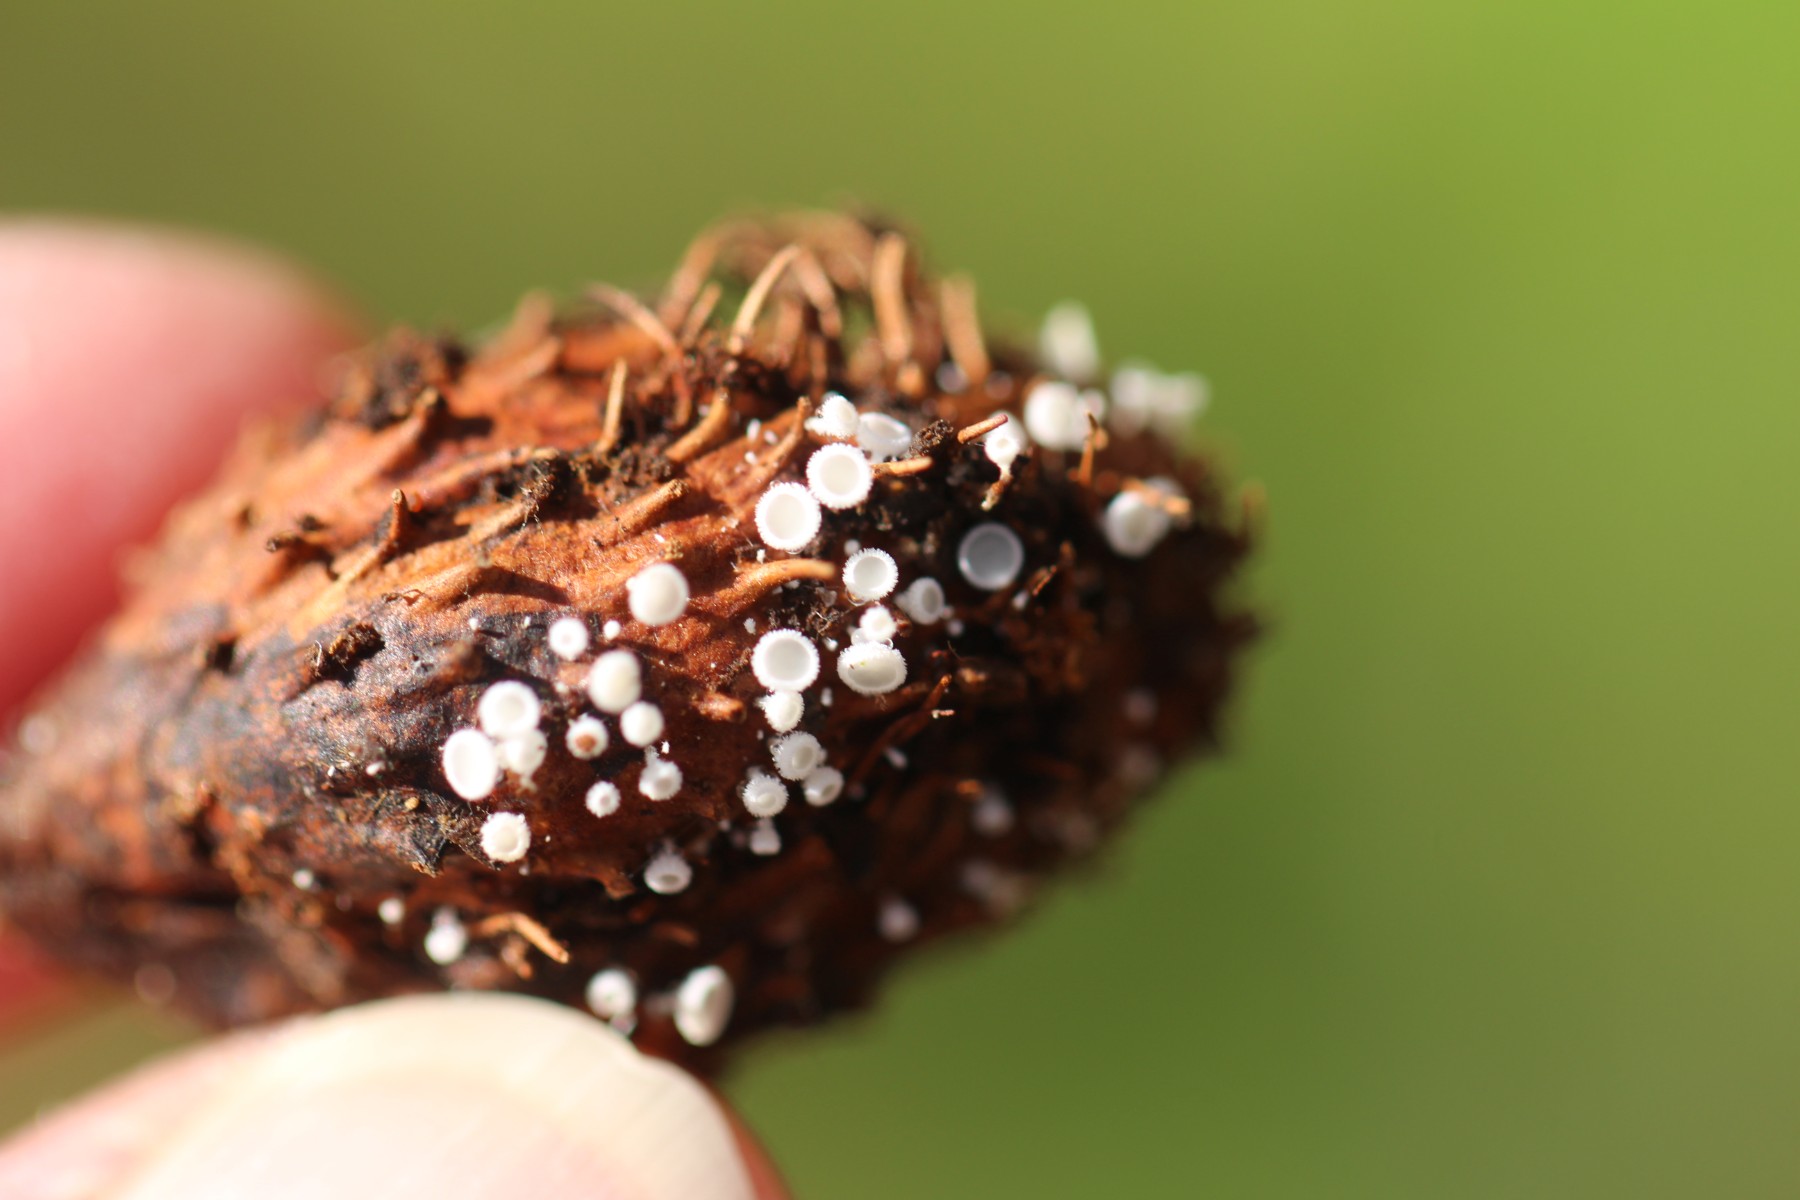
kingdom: Fungi
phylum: Ascomycota
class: Leotiomycetes
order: Helotiales
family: Lachnaceae
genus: Lachnum
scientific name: Lachnum virgineum
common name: jomfru-frynseskive
